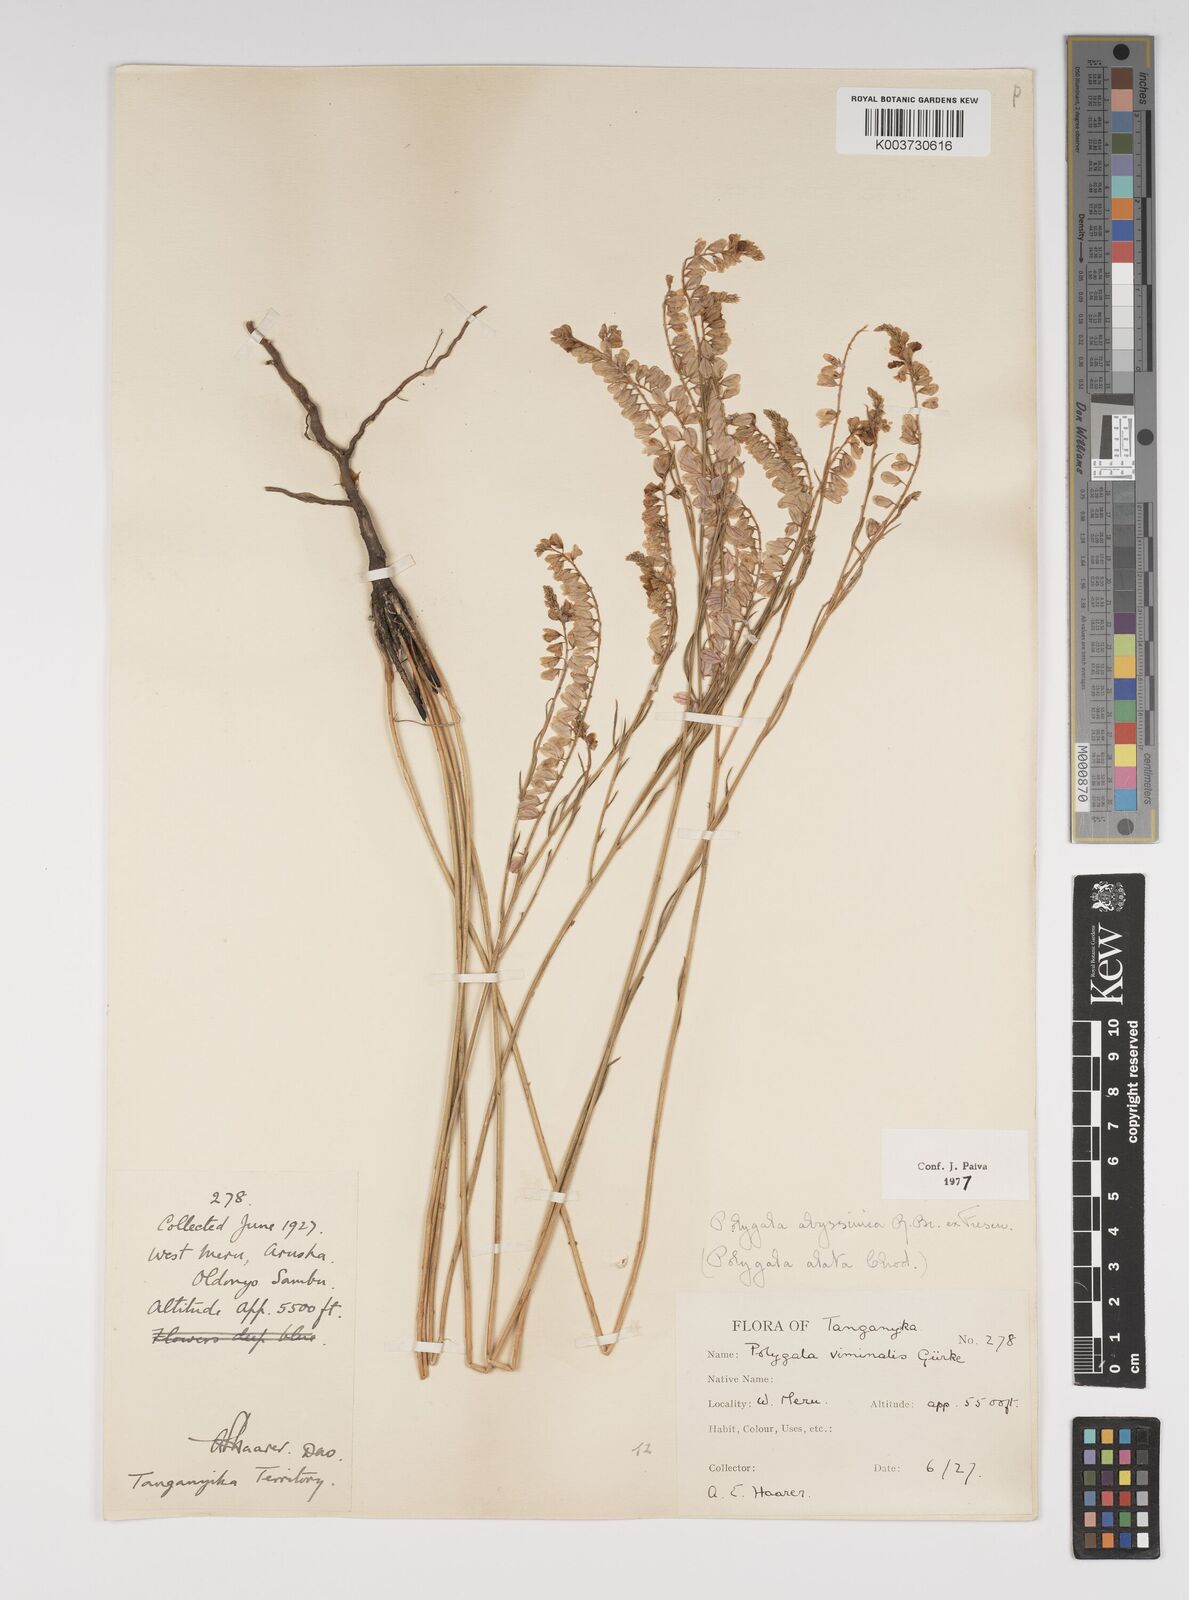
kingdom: Plantae
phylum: Tracheophyta
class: Magnoliopsida
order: Fabales
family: Polygalaceae
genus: Polygala
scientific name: Polygala abyssinica
